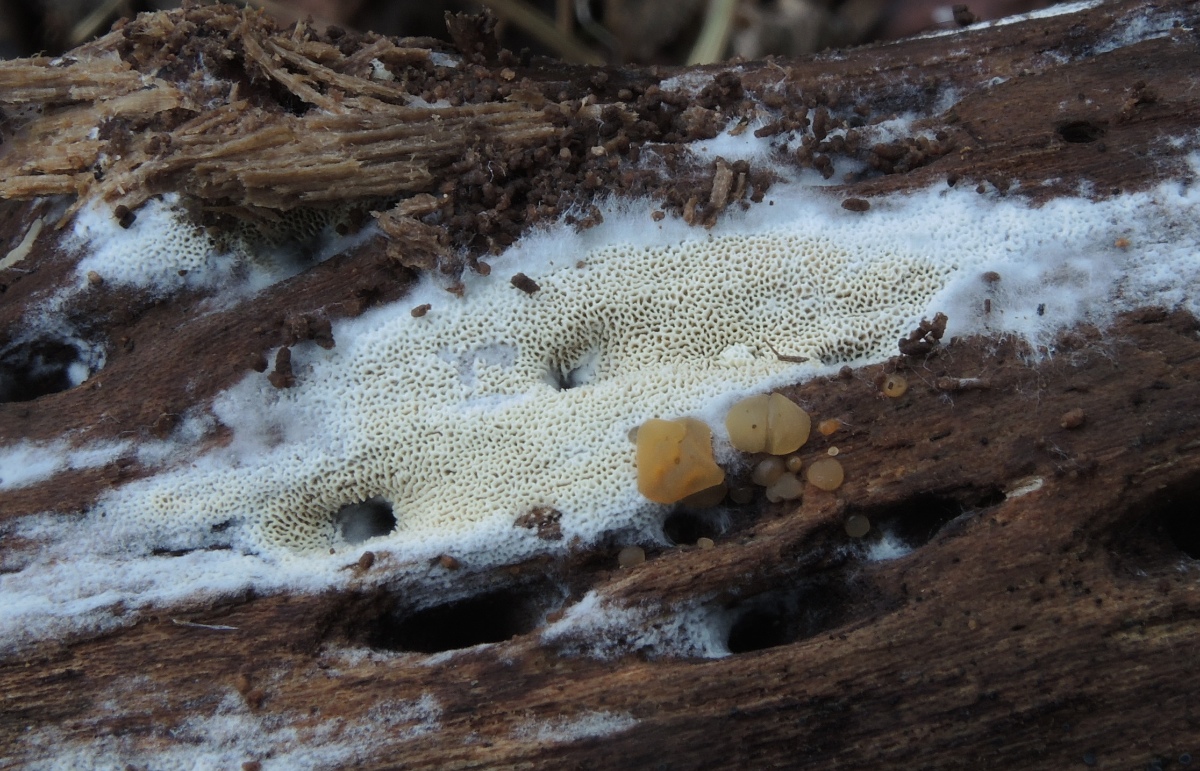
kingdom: Fungi
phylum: Basidiomycota
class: Agaricomycetes
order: Hymenochaetales
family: Schizoporaceae
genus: Xylodon
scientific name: Xylodon
